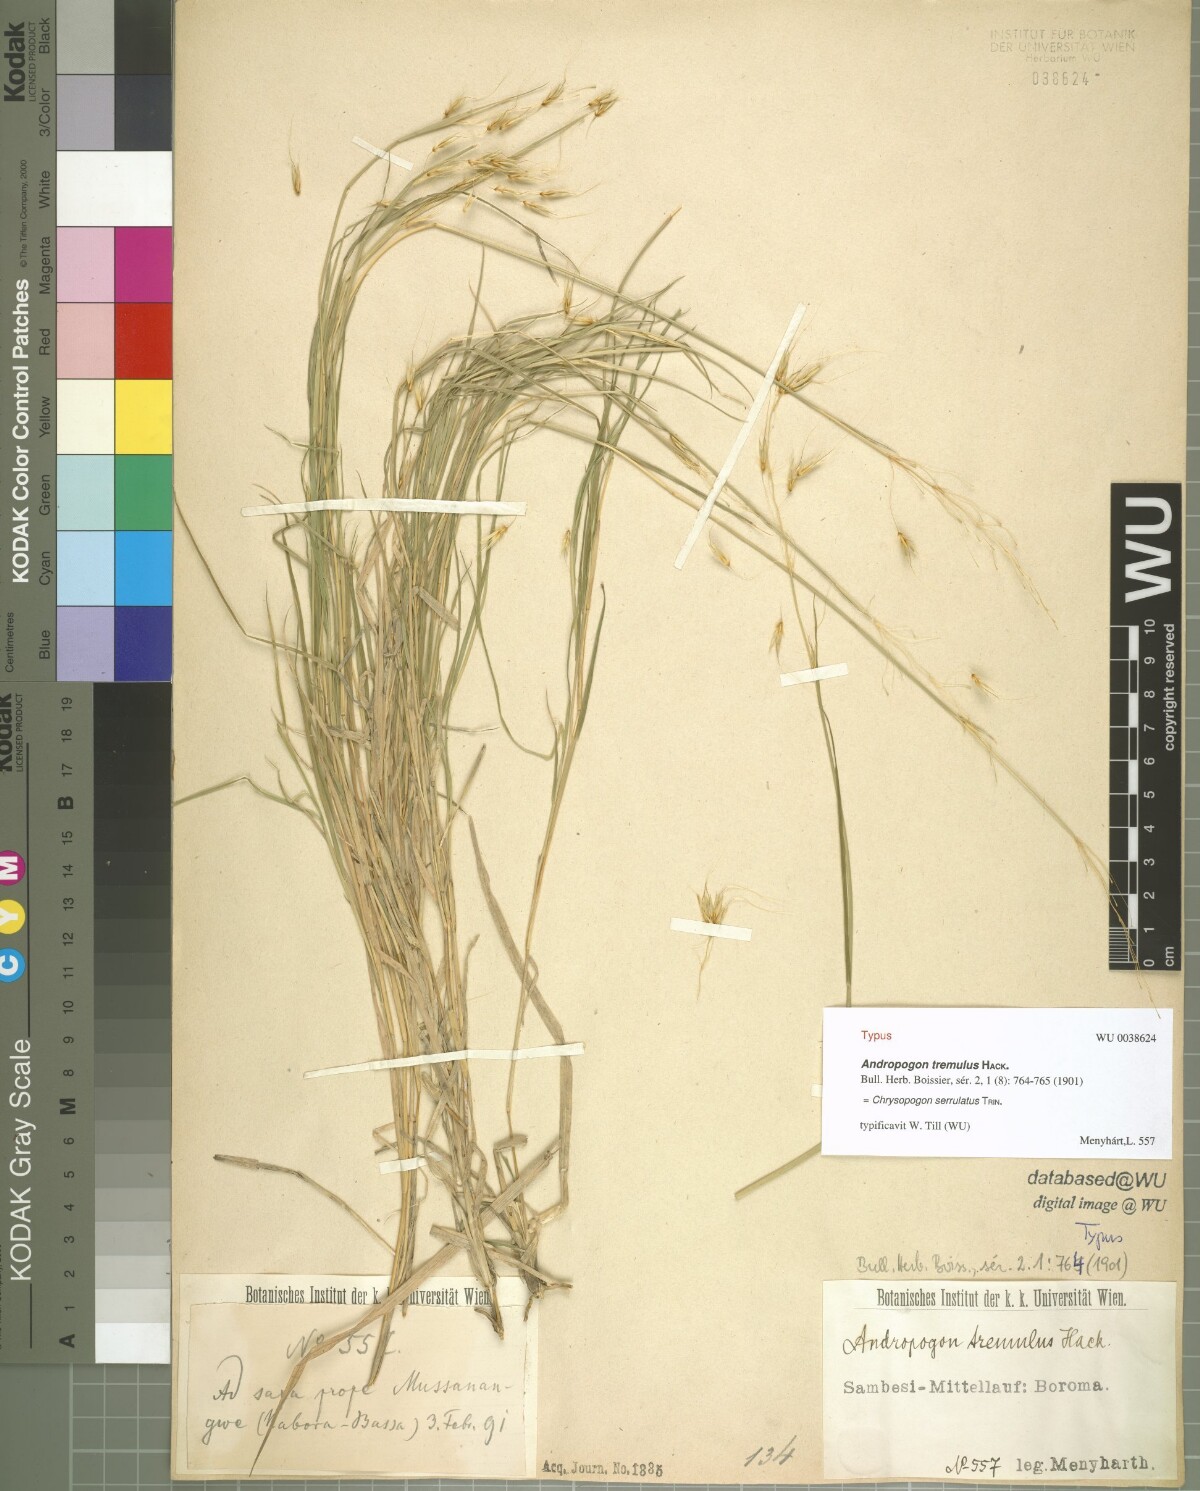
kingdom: Plantae
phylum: Tracheophyta
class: Liliopsida
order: Poales
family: Poaceae
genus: Chrysopogon
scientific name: Chrysopogon serrulatus
